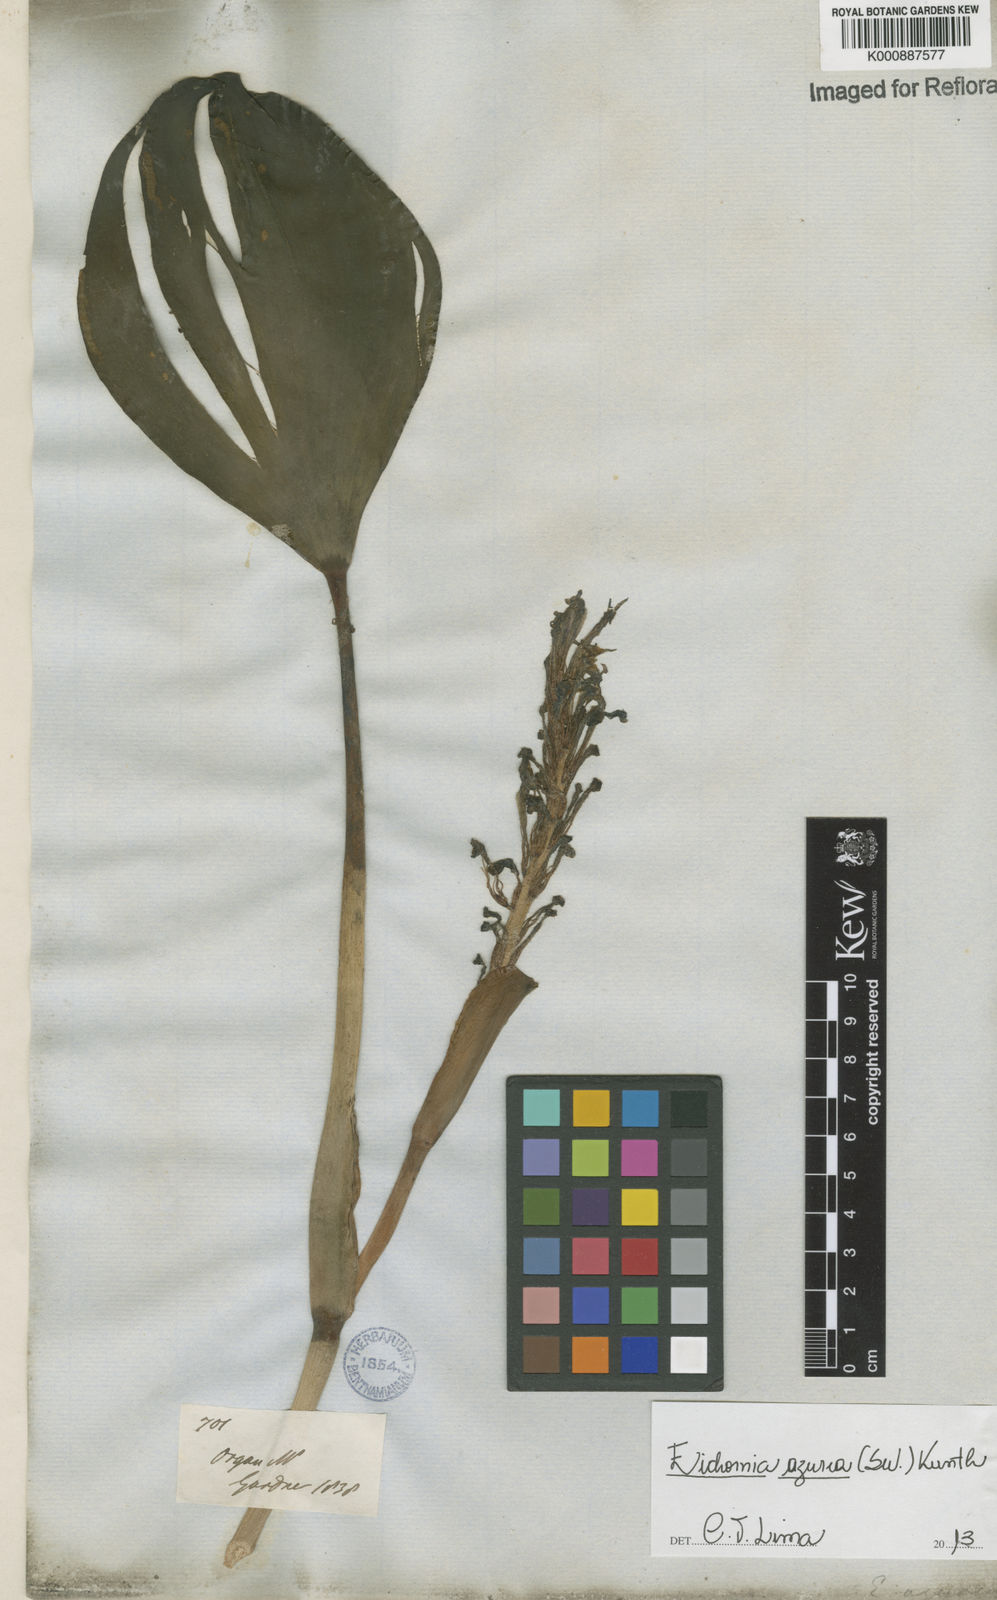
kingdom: Plantae
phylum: Tracheophyta
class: Liliopsida
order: Commelinales
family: Pontederiaceae
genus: Pontederia
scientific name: Pontederia azurea
